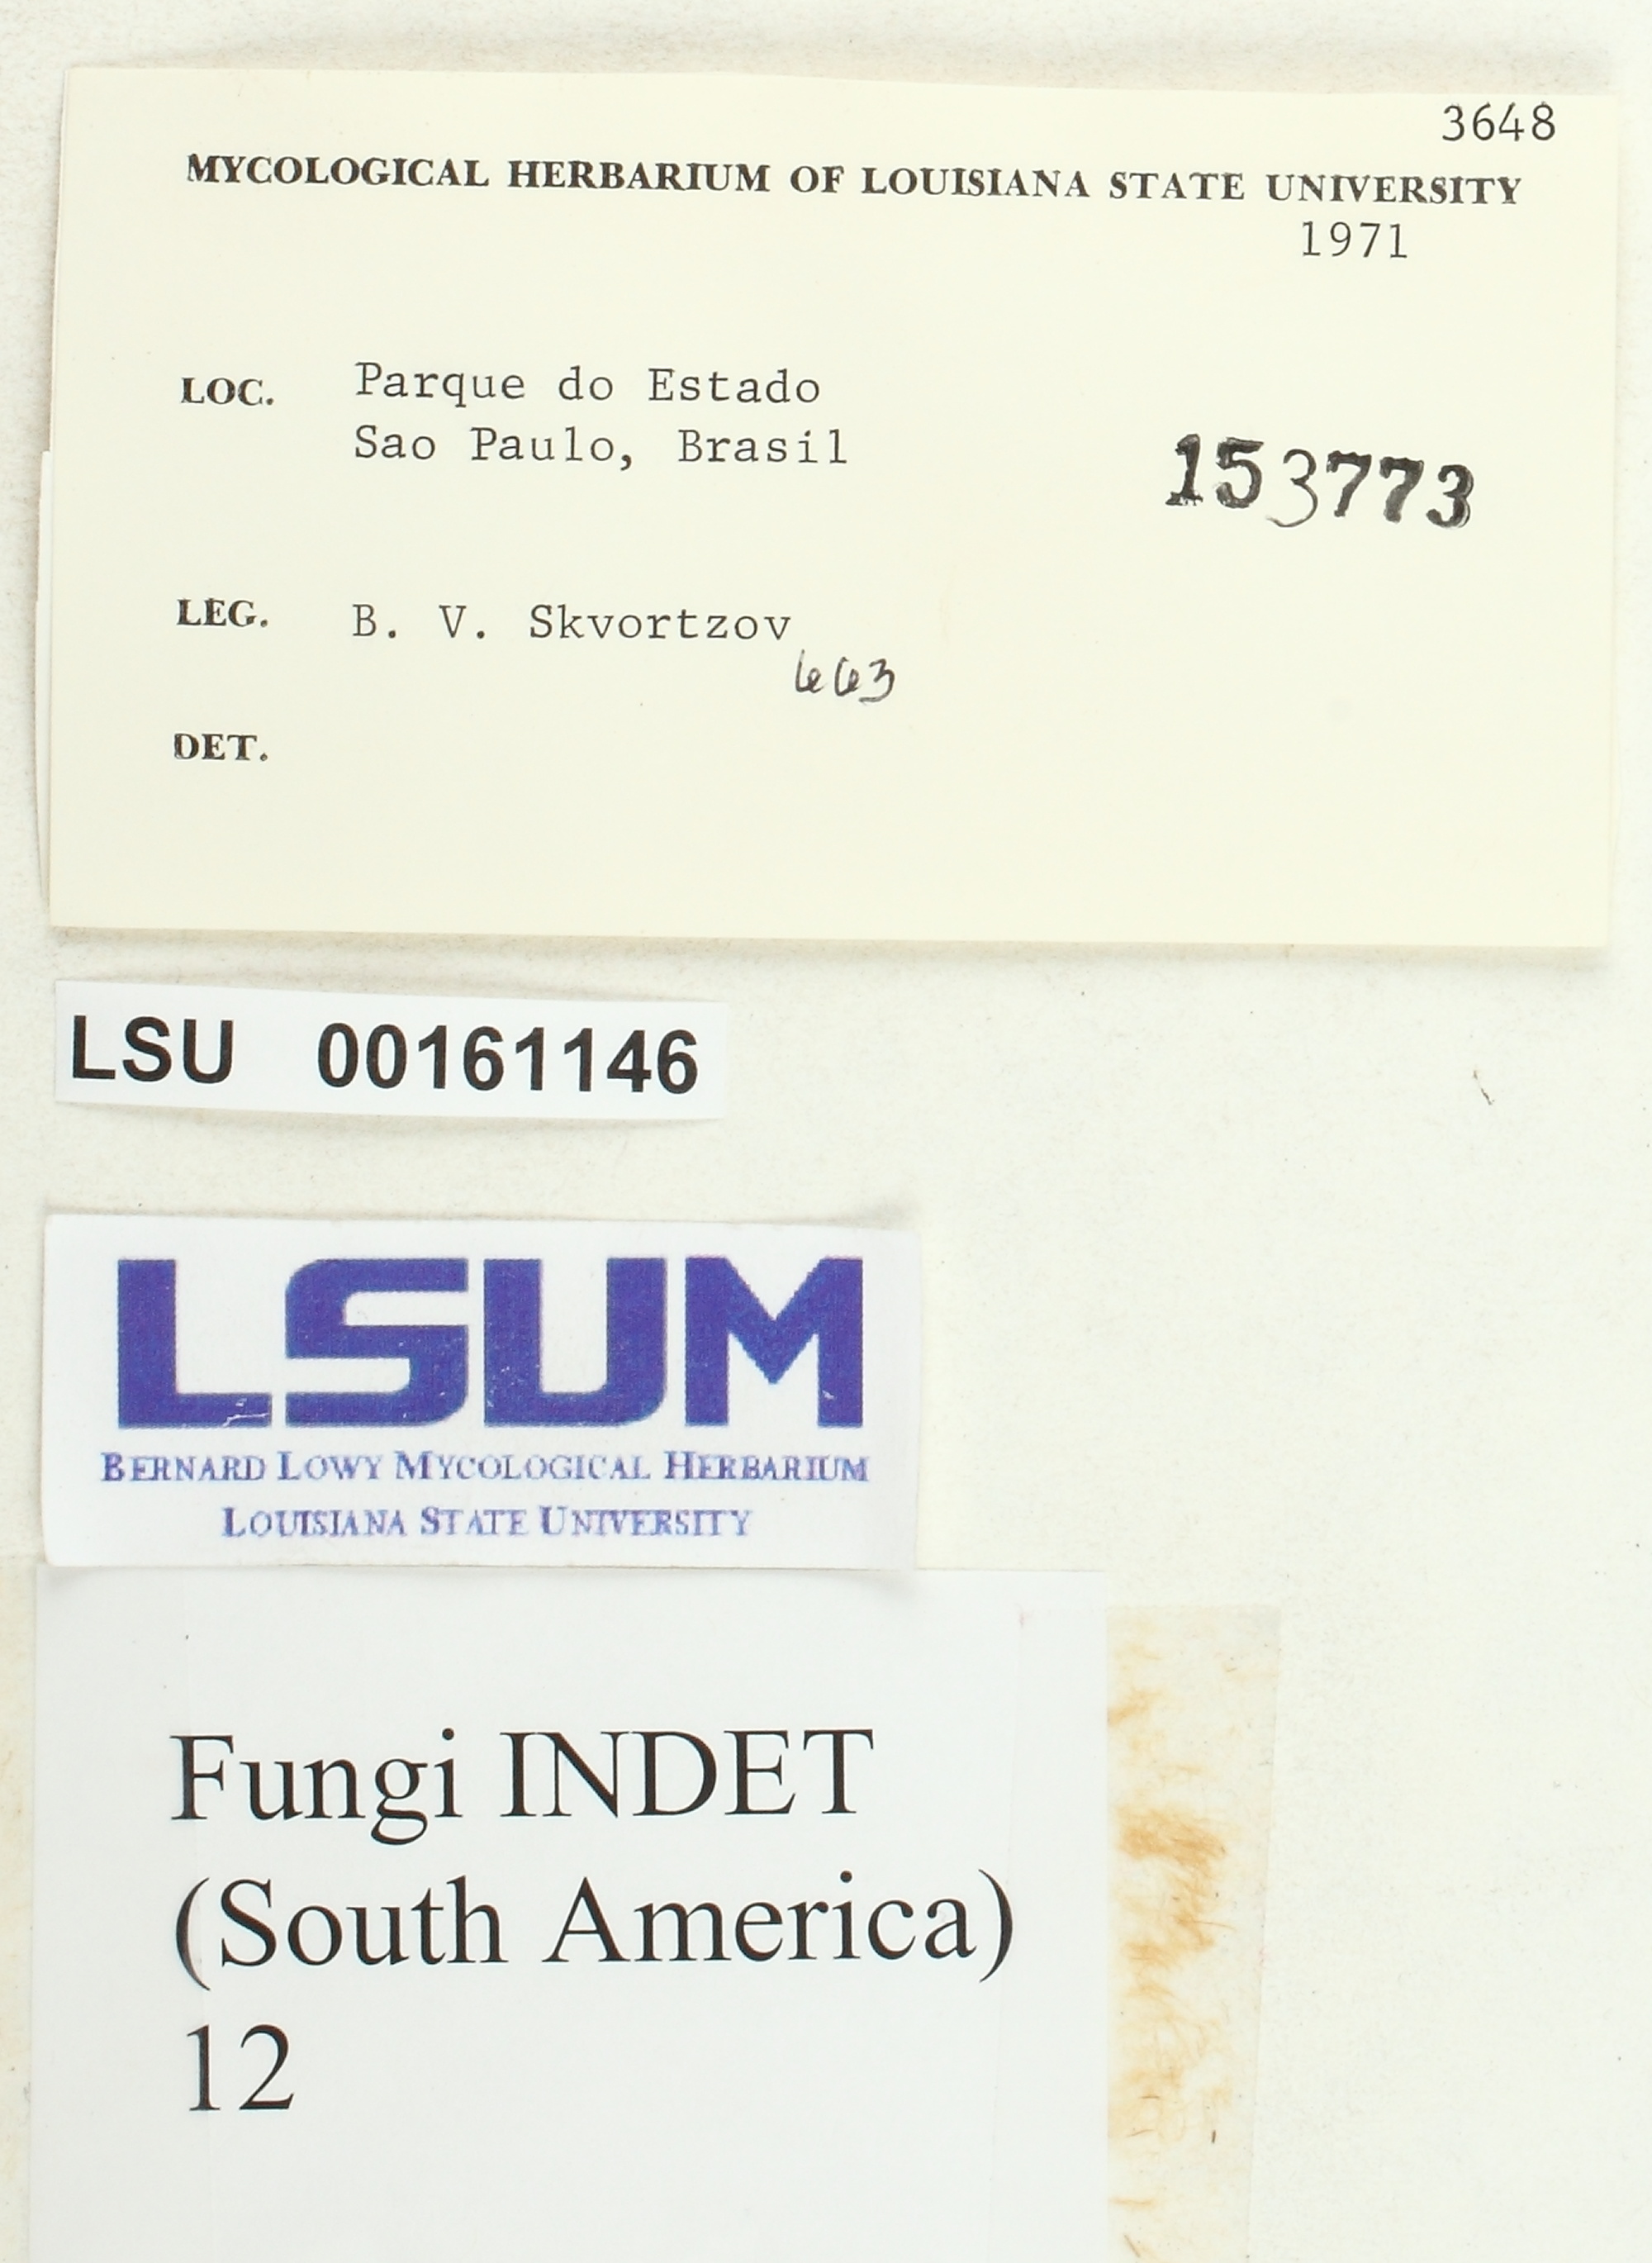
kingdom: Fungi
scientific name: Fungi
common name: Fungi
